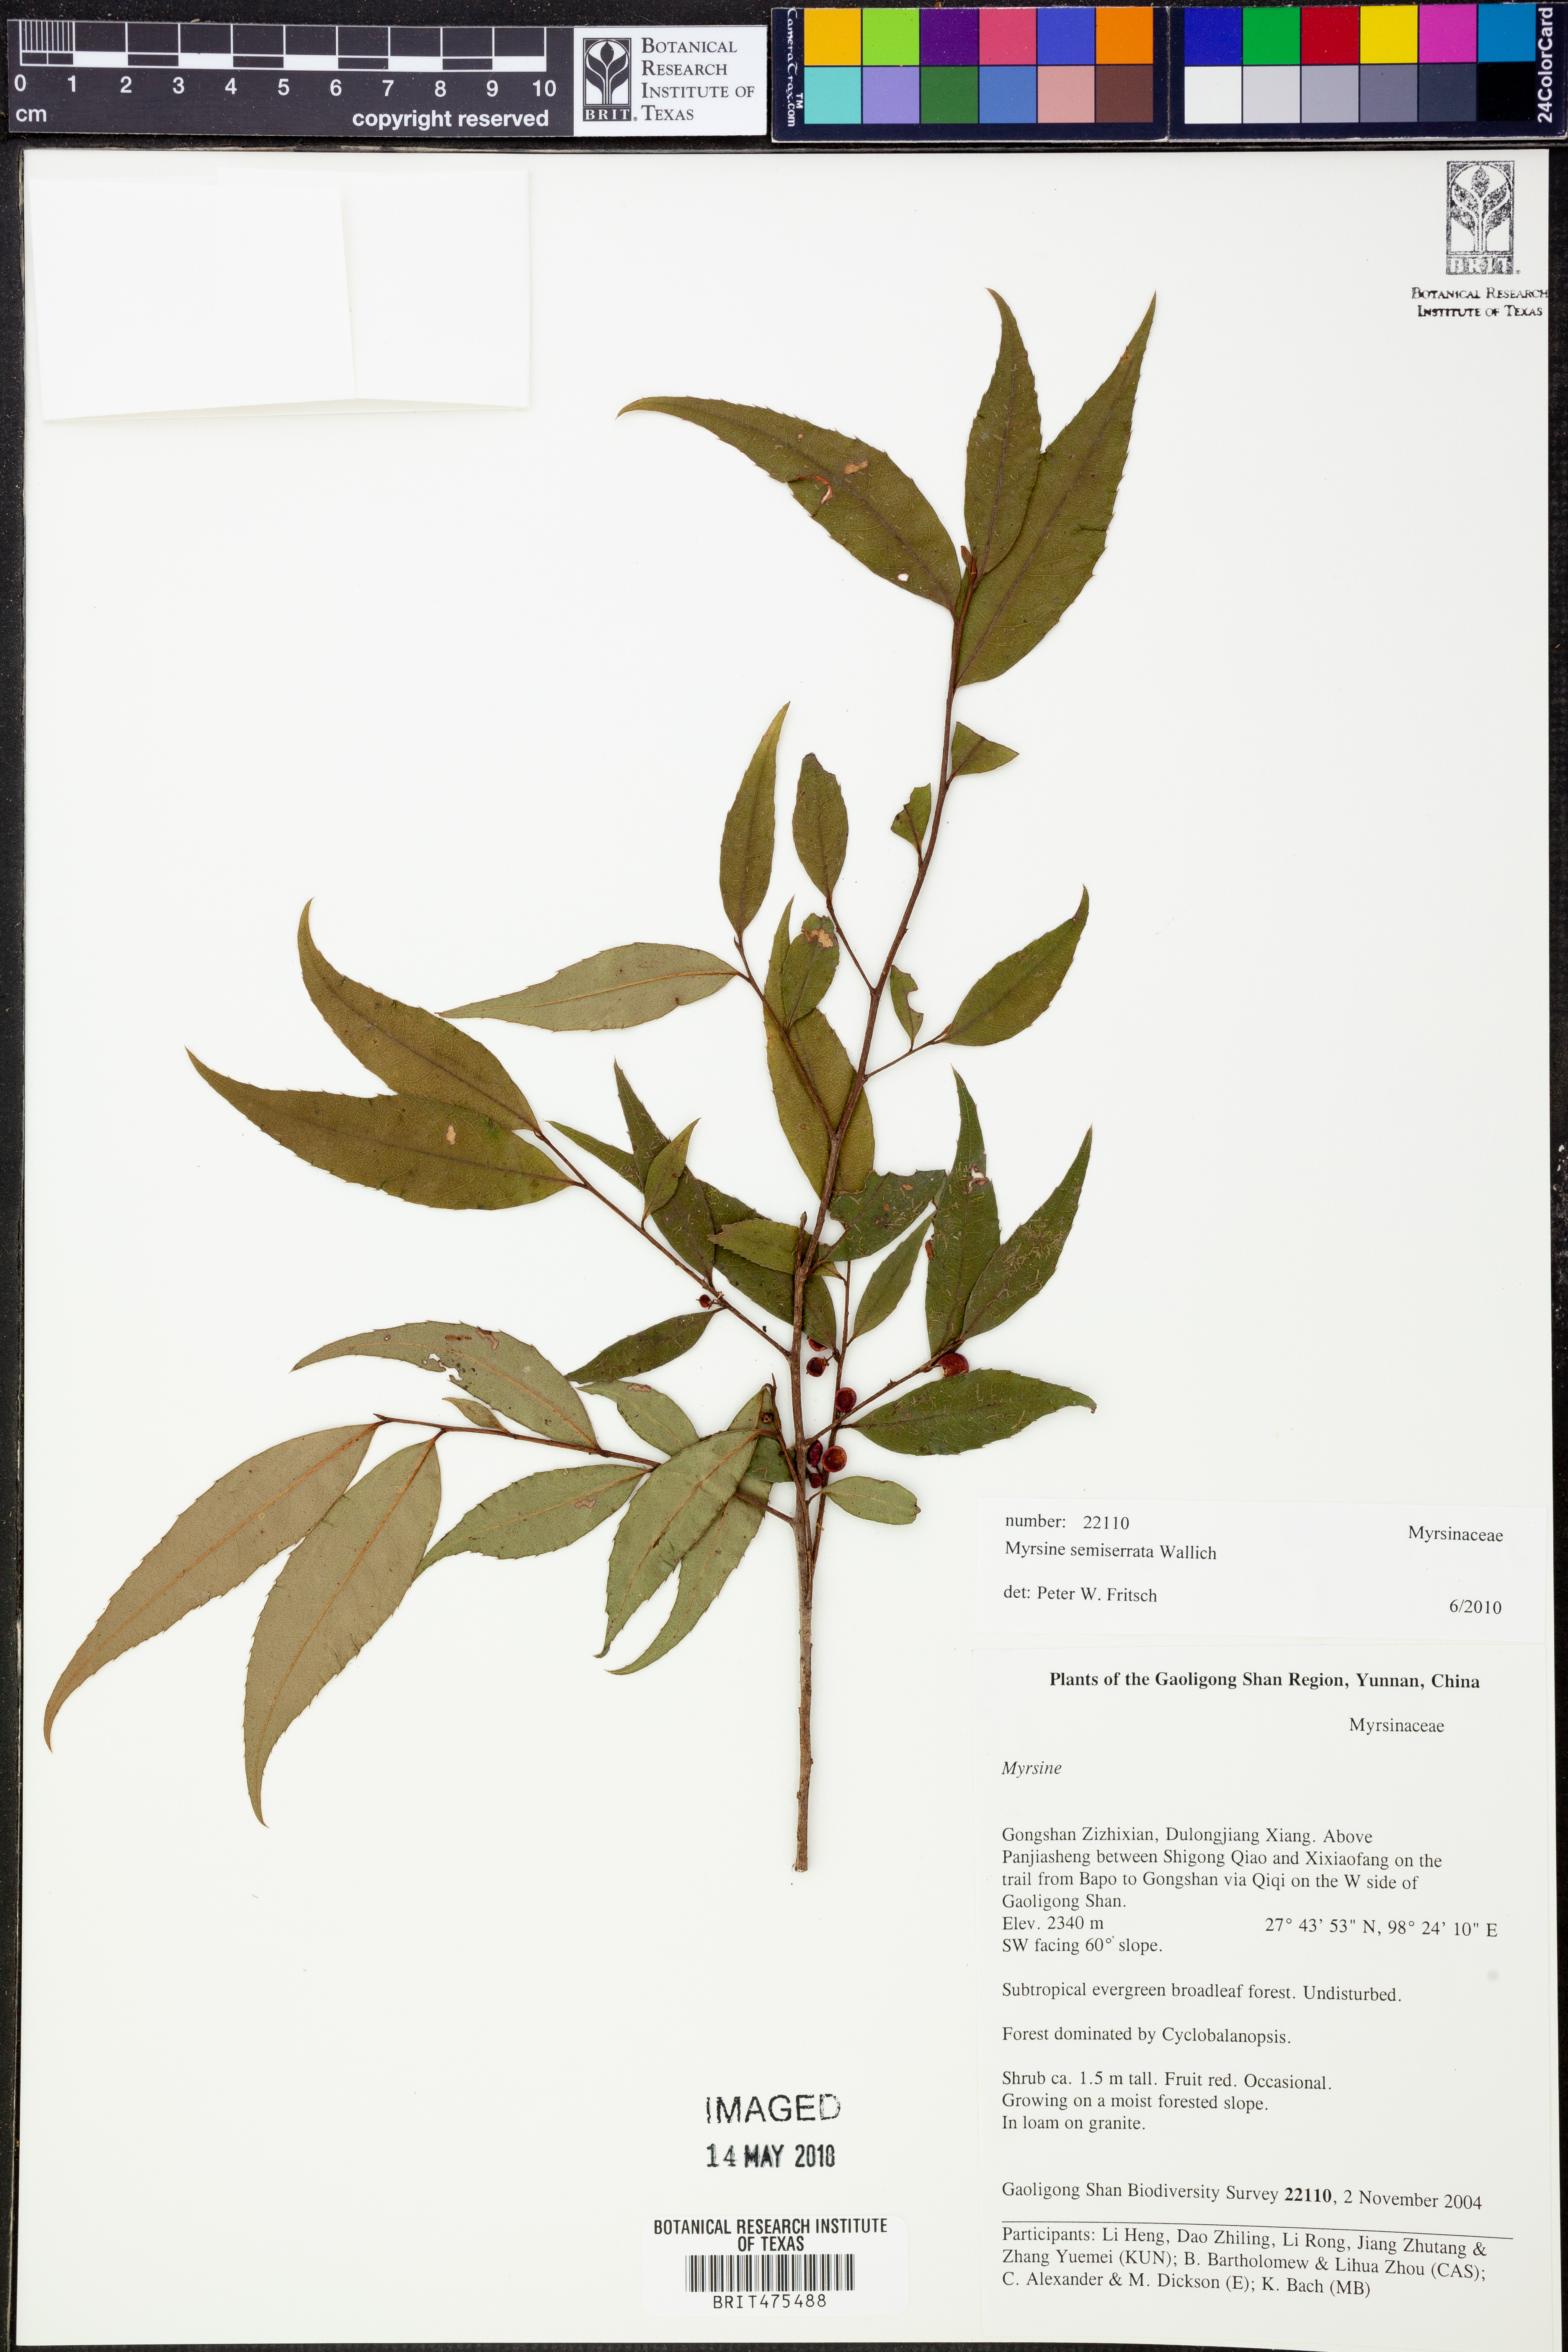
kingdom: Plantae
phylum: Tracheophyta
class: Magnoliopsida
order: Ericales
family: Primulaceae
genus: Myrsine
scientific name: Myrsine semiserrata
